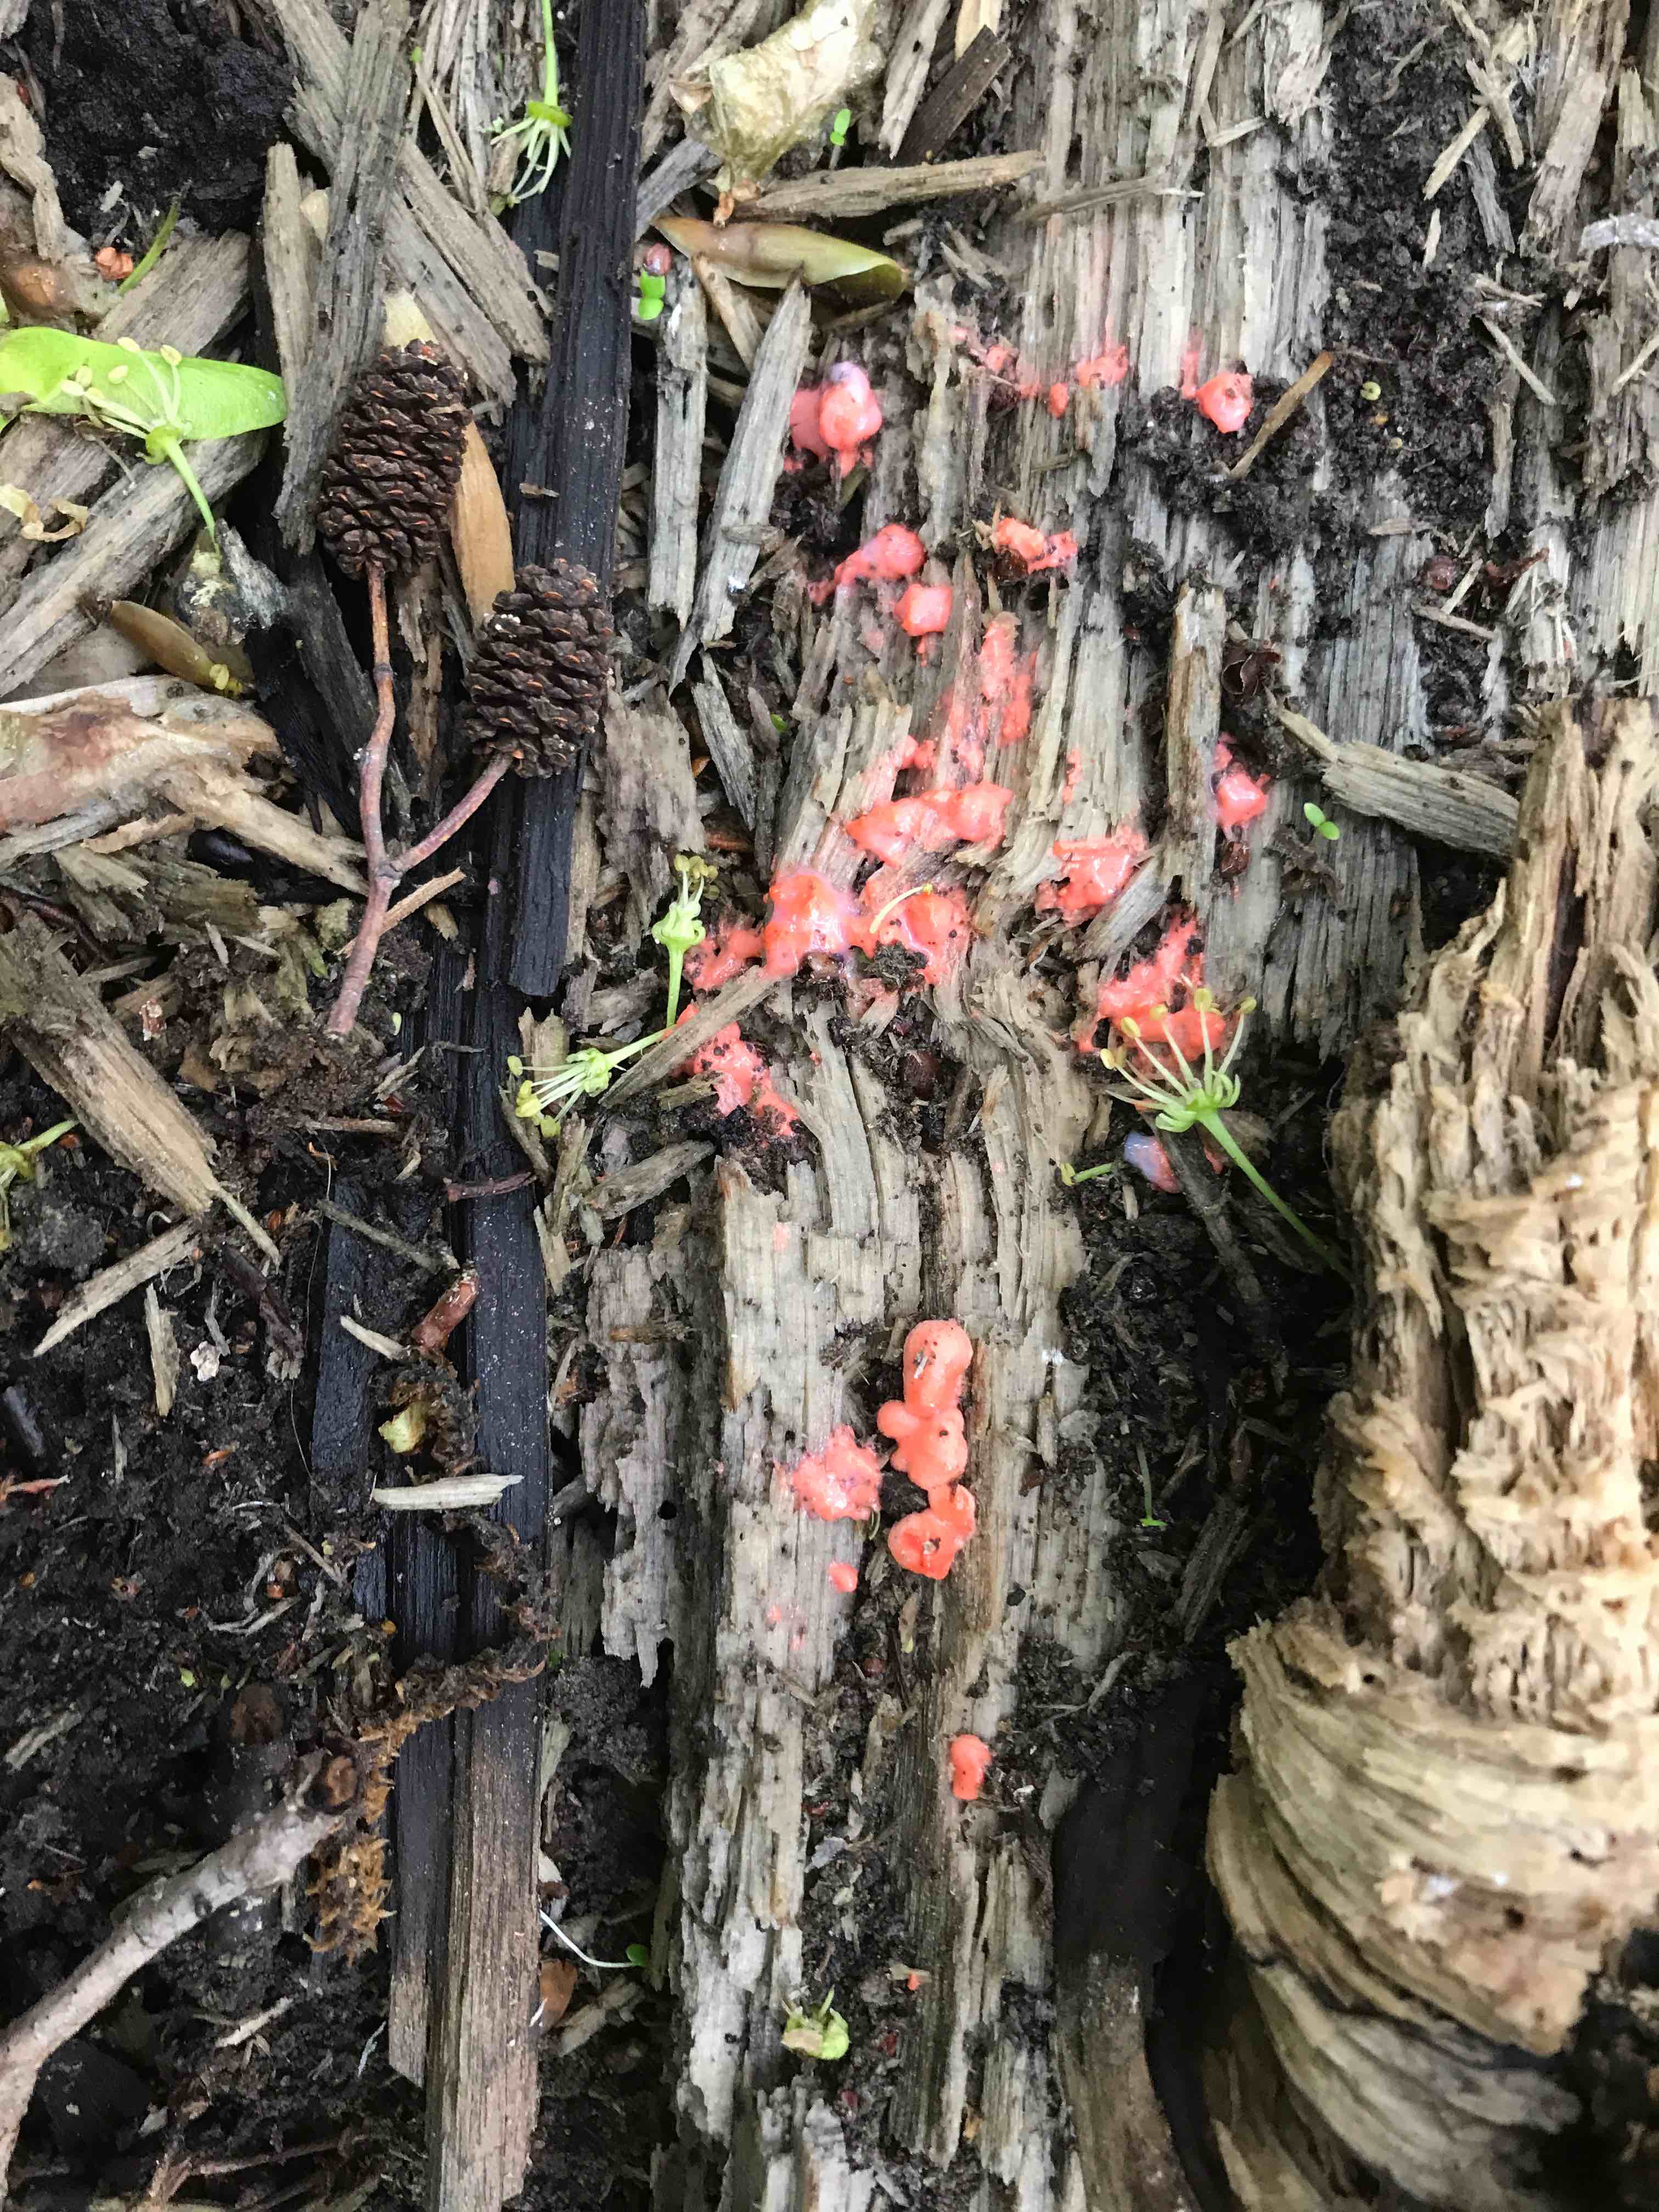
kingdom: Protozoa
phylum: Mycetozoa
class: Myxomycetes
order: Cribrariales
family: Tubiferaceae
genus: Lycogala
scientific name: Lycogala epidendrum
